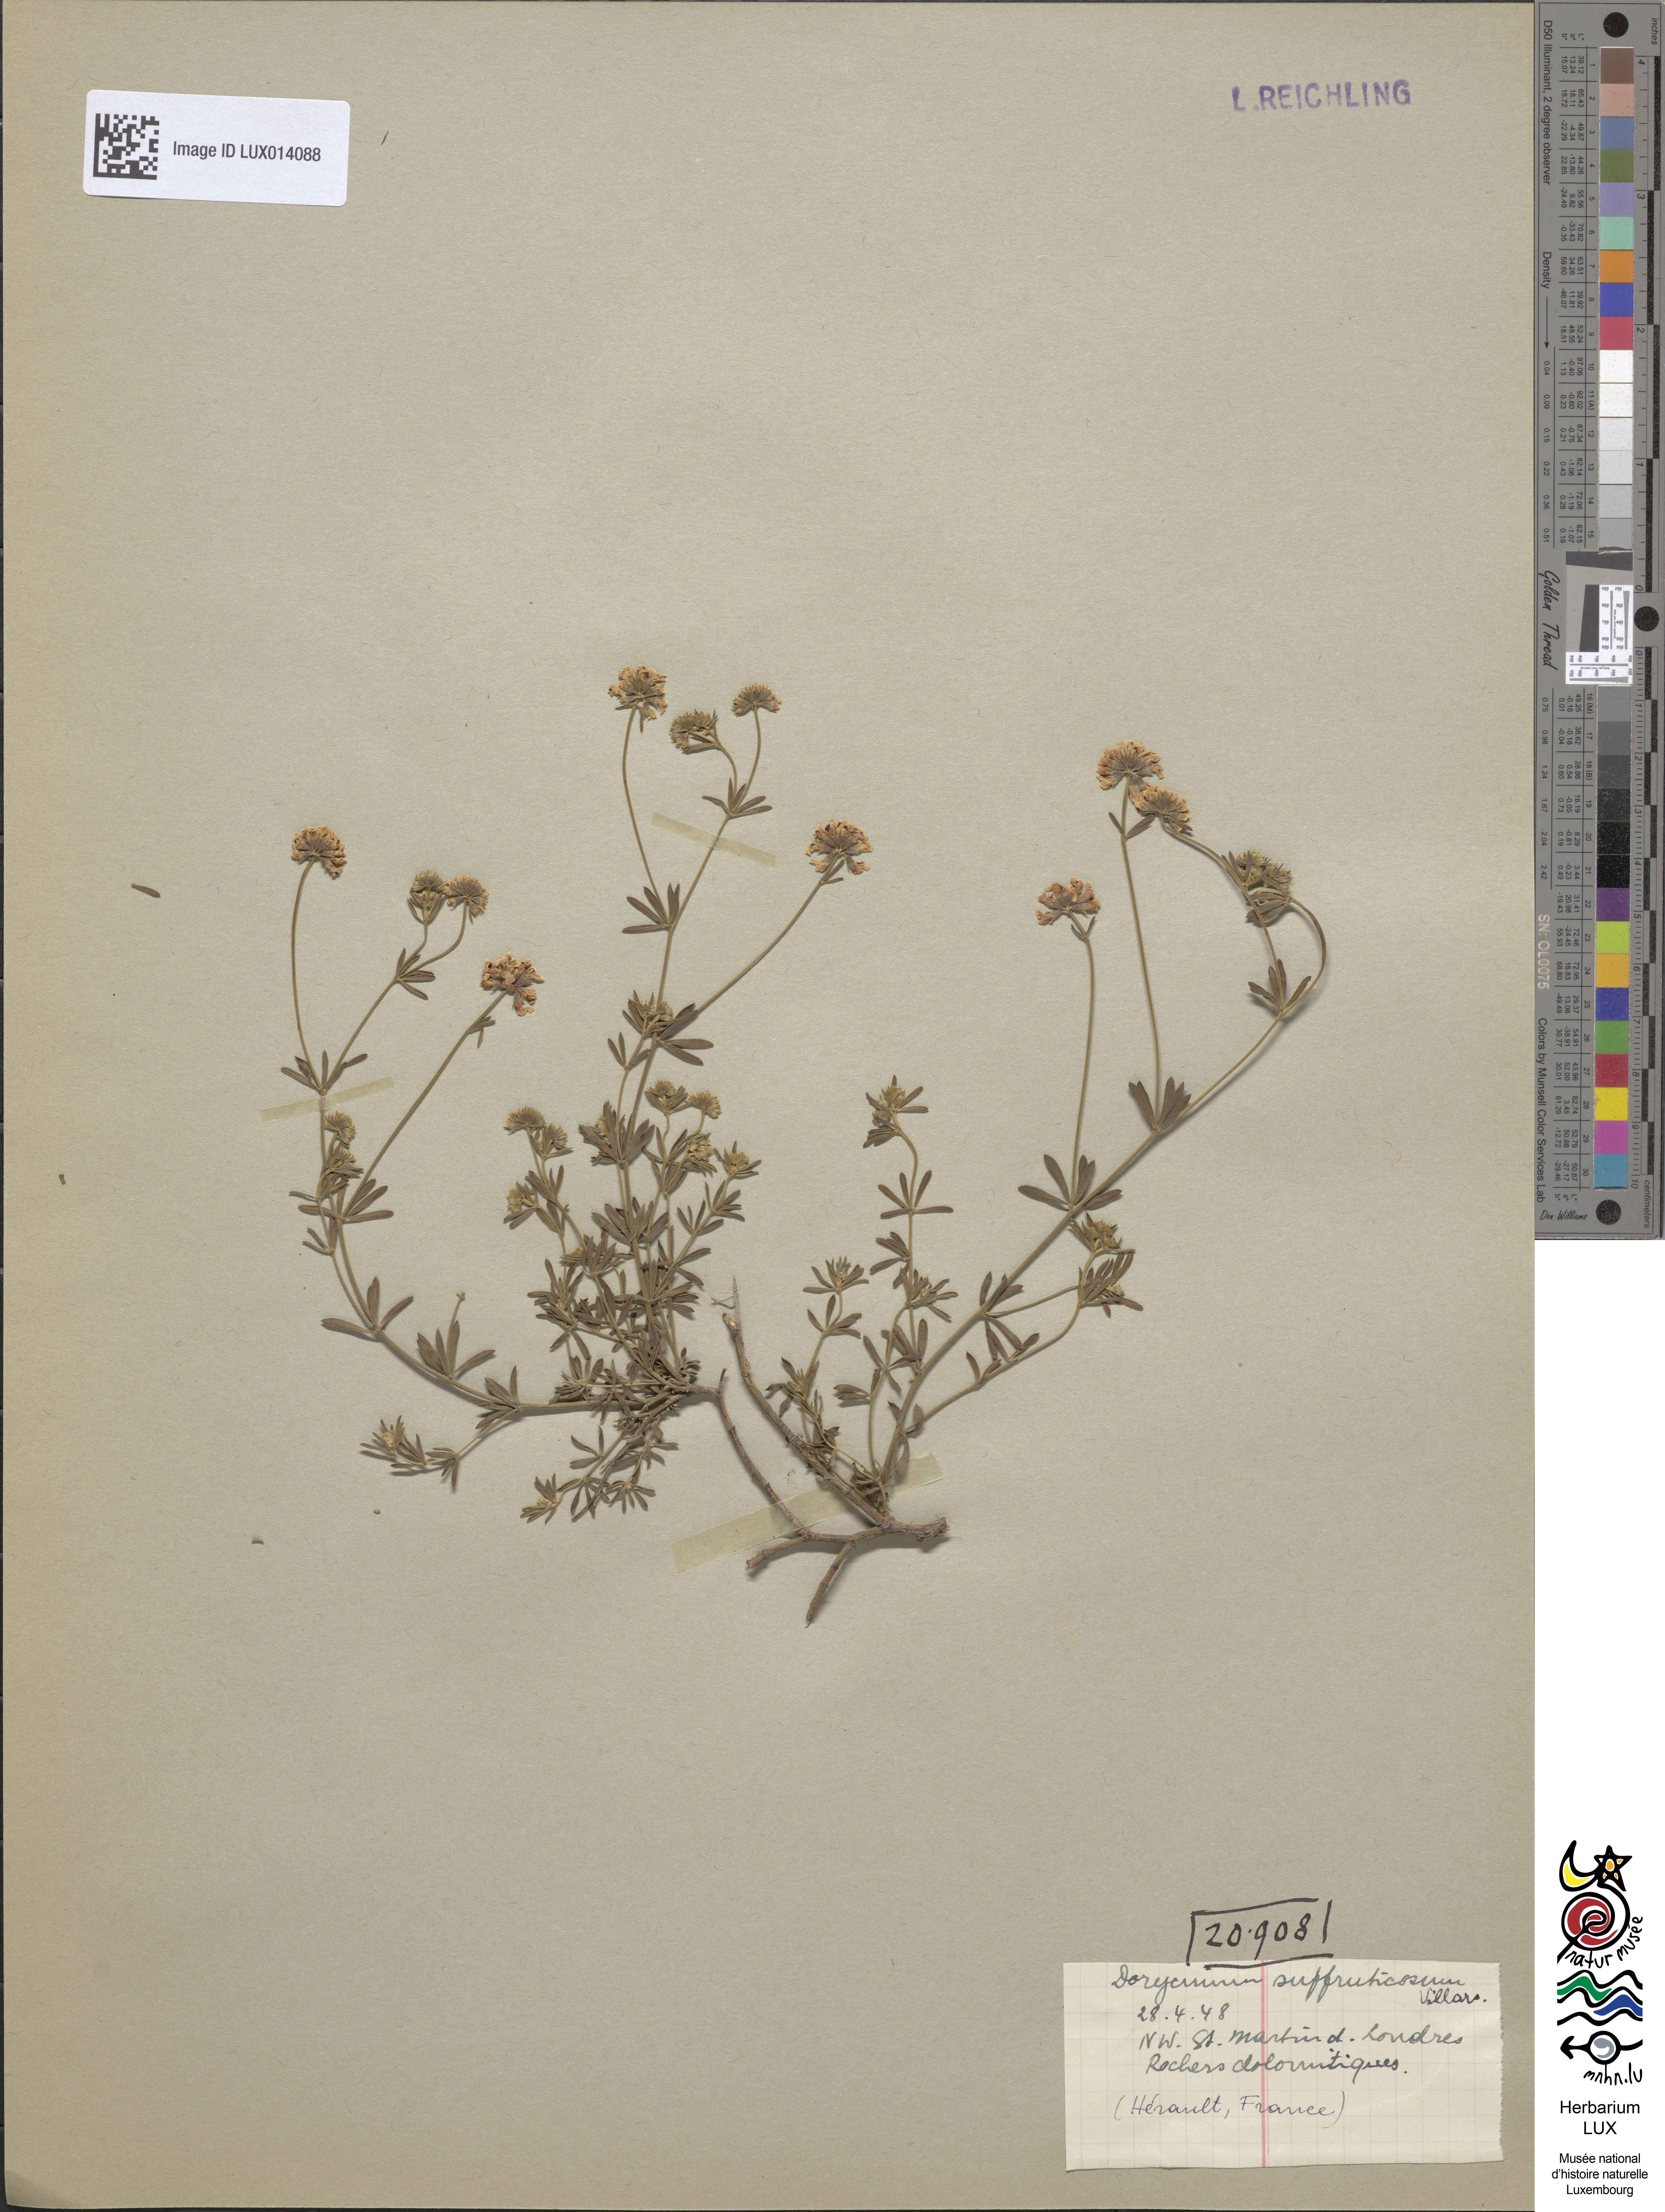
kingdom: Plantae
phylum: Tracheophyta
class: Magnoliopsida
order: Fabales
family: Fabaceae
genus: Lotus
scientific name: Lotus dorycnium
